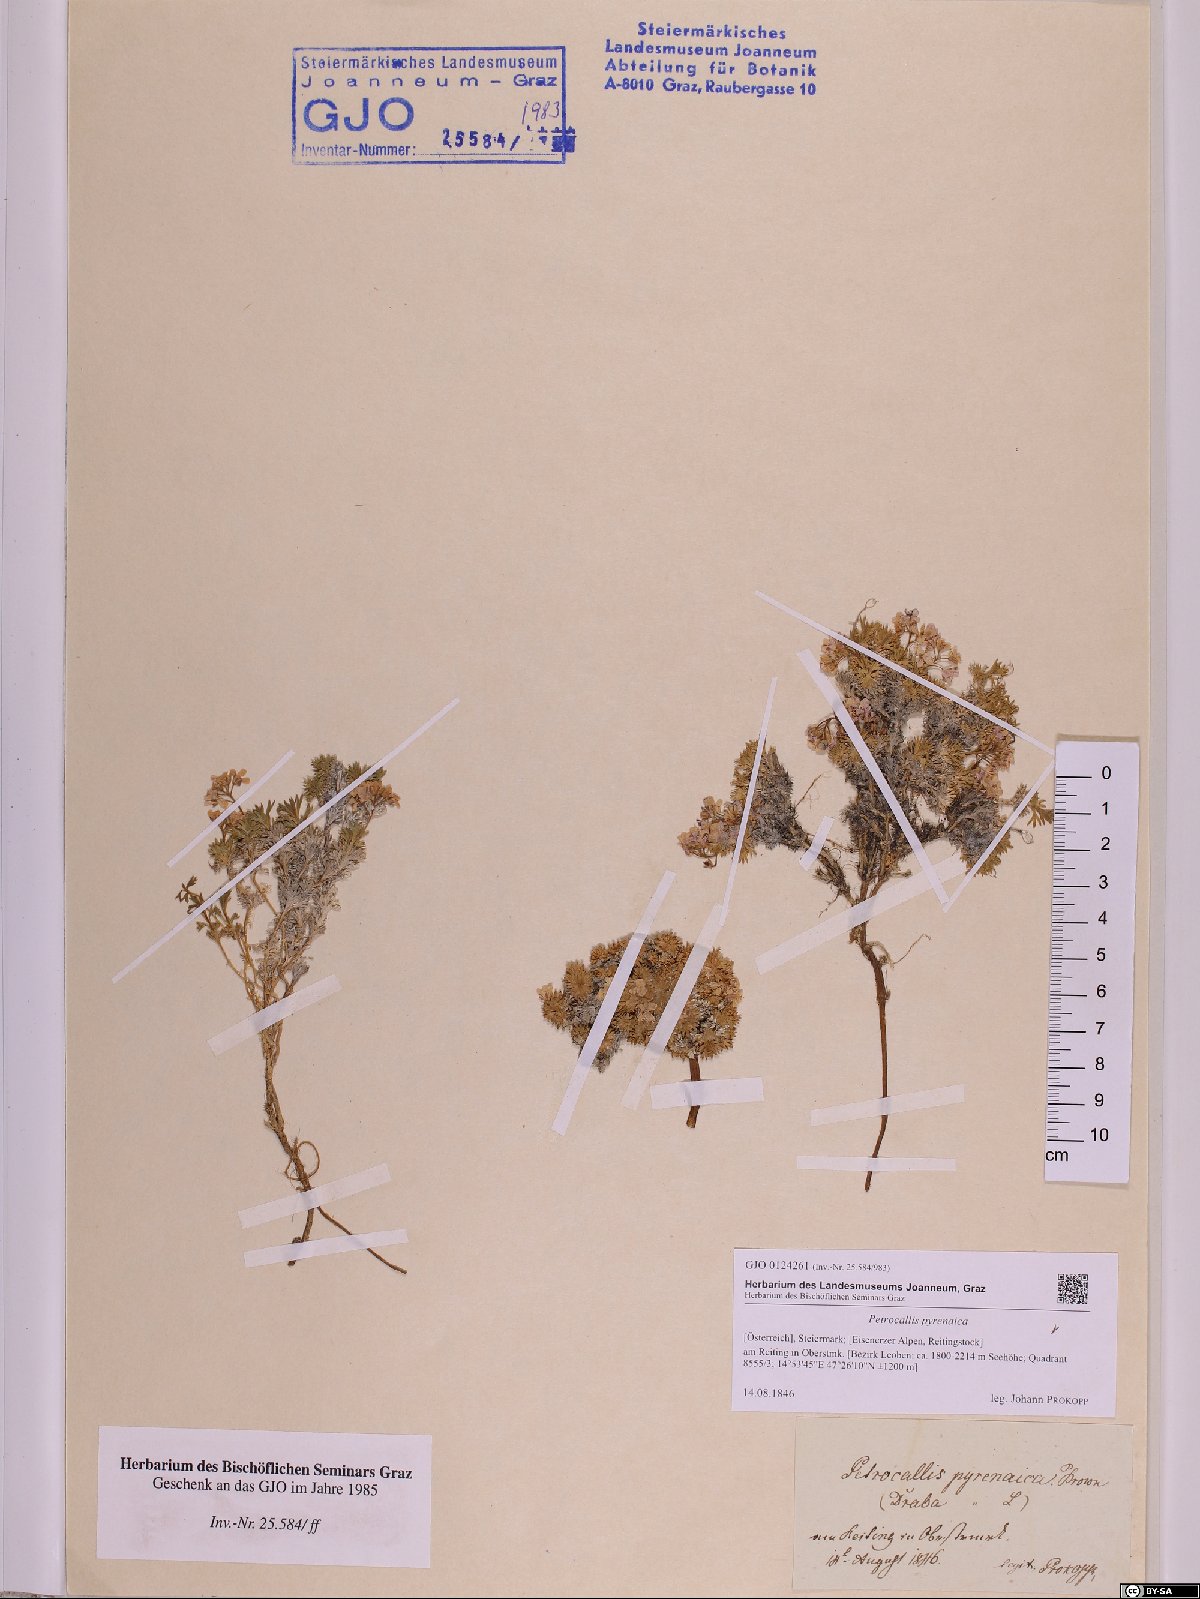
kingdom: Plantae
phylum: Tracheophyta
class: Magnoliopsida
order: Brassicales
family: Brassicaceae
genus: Petrocallis
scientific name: Petrocallis pyrenaica
